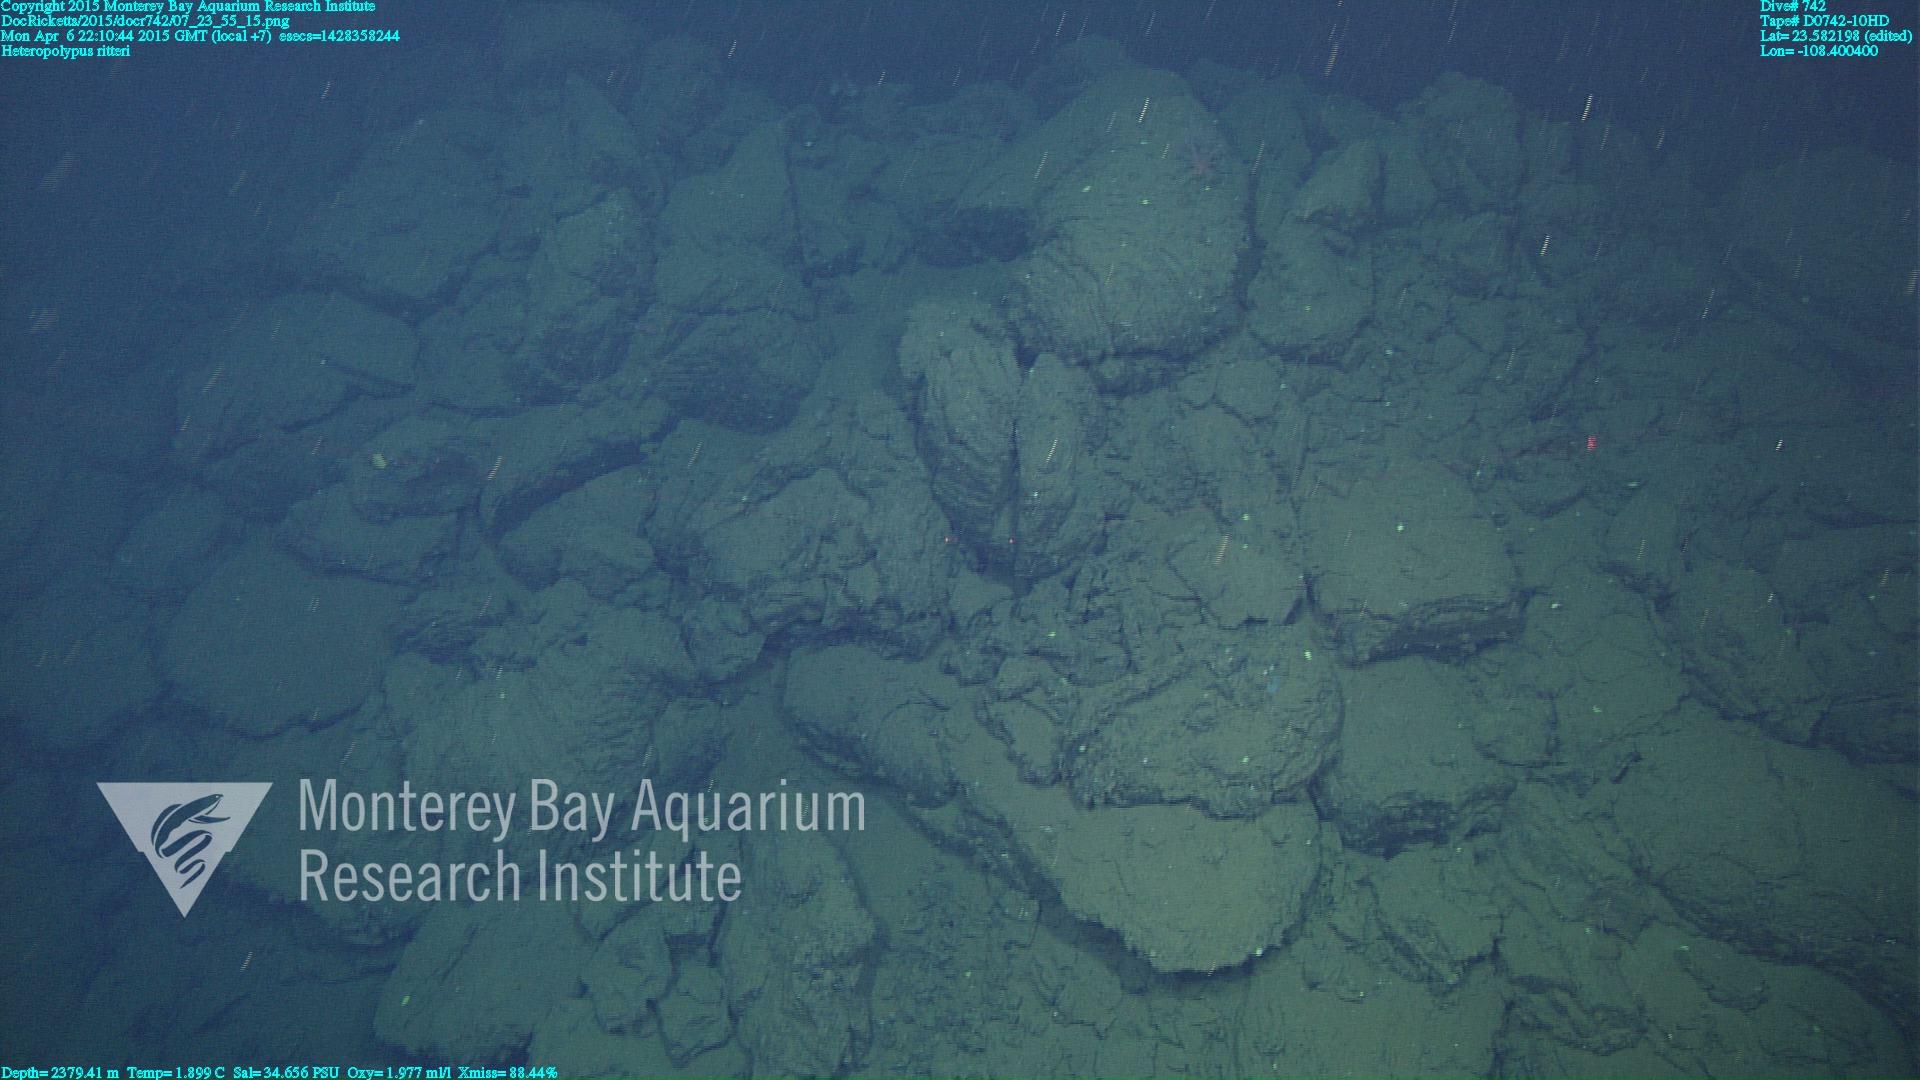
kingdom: Animalia
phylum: Cnidaria
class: Anthozoa
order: Scleralcyonacea
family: Coralliidae
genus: Heteropolypus
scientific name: Heteropolypus ritteri
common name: Ritter's soft coral
